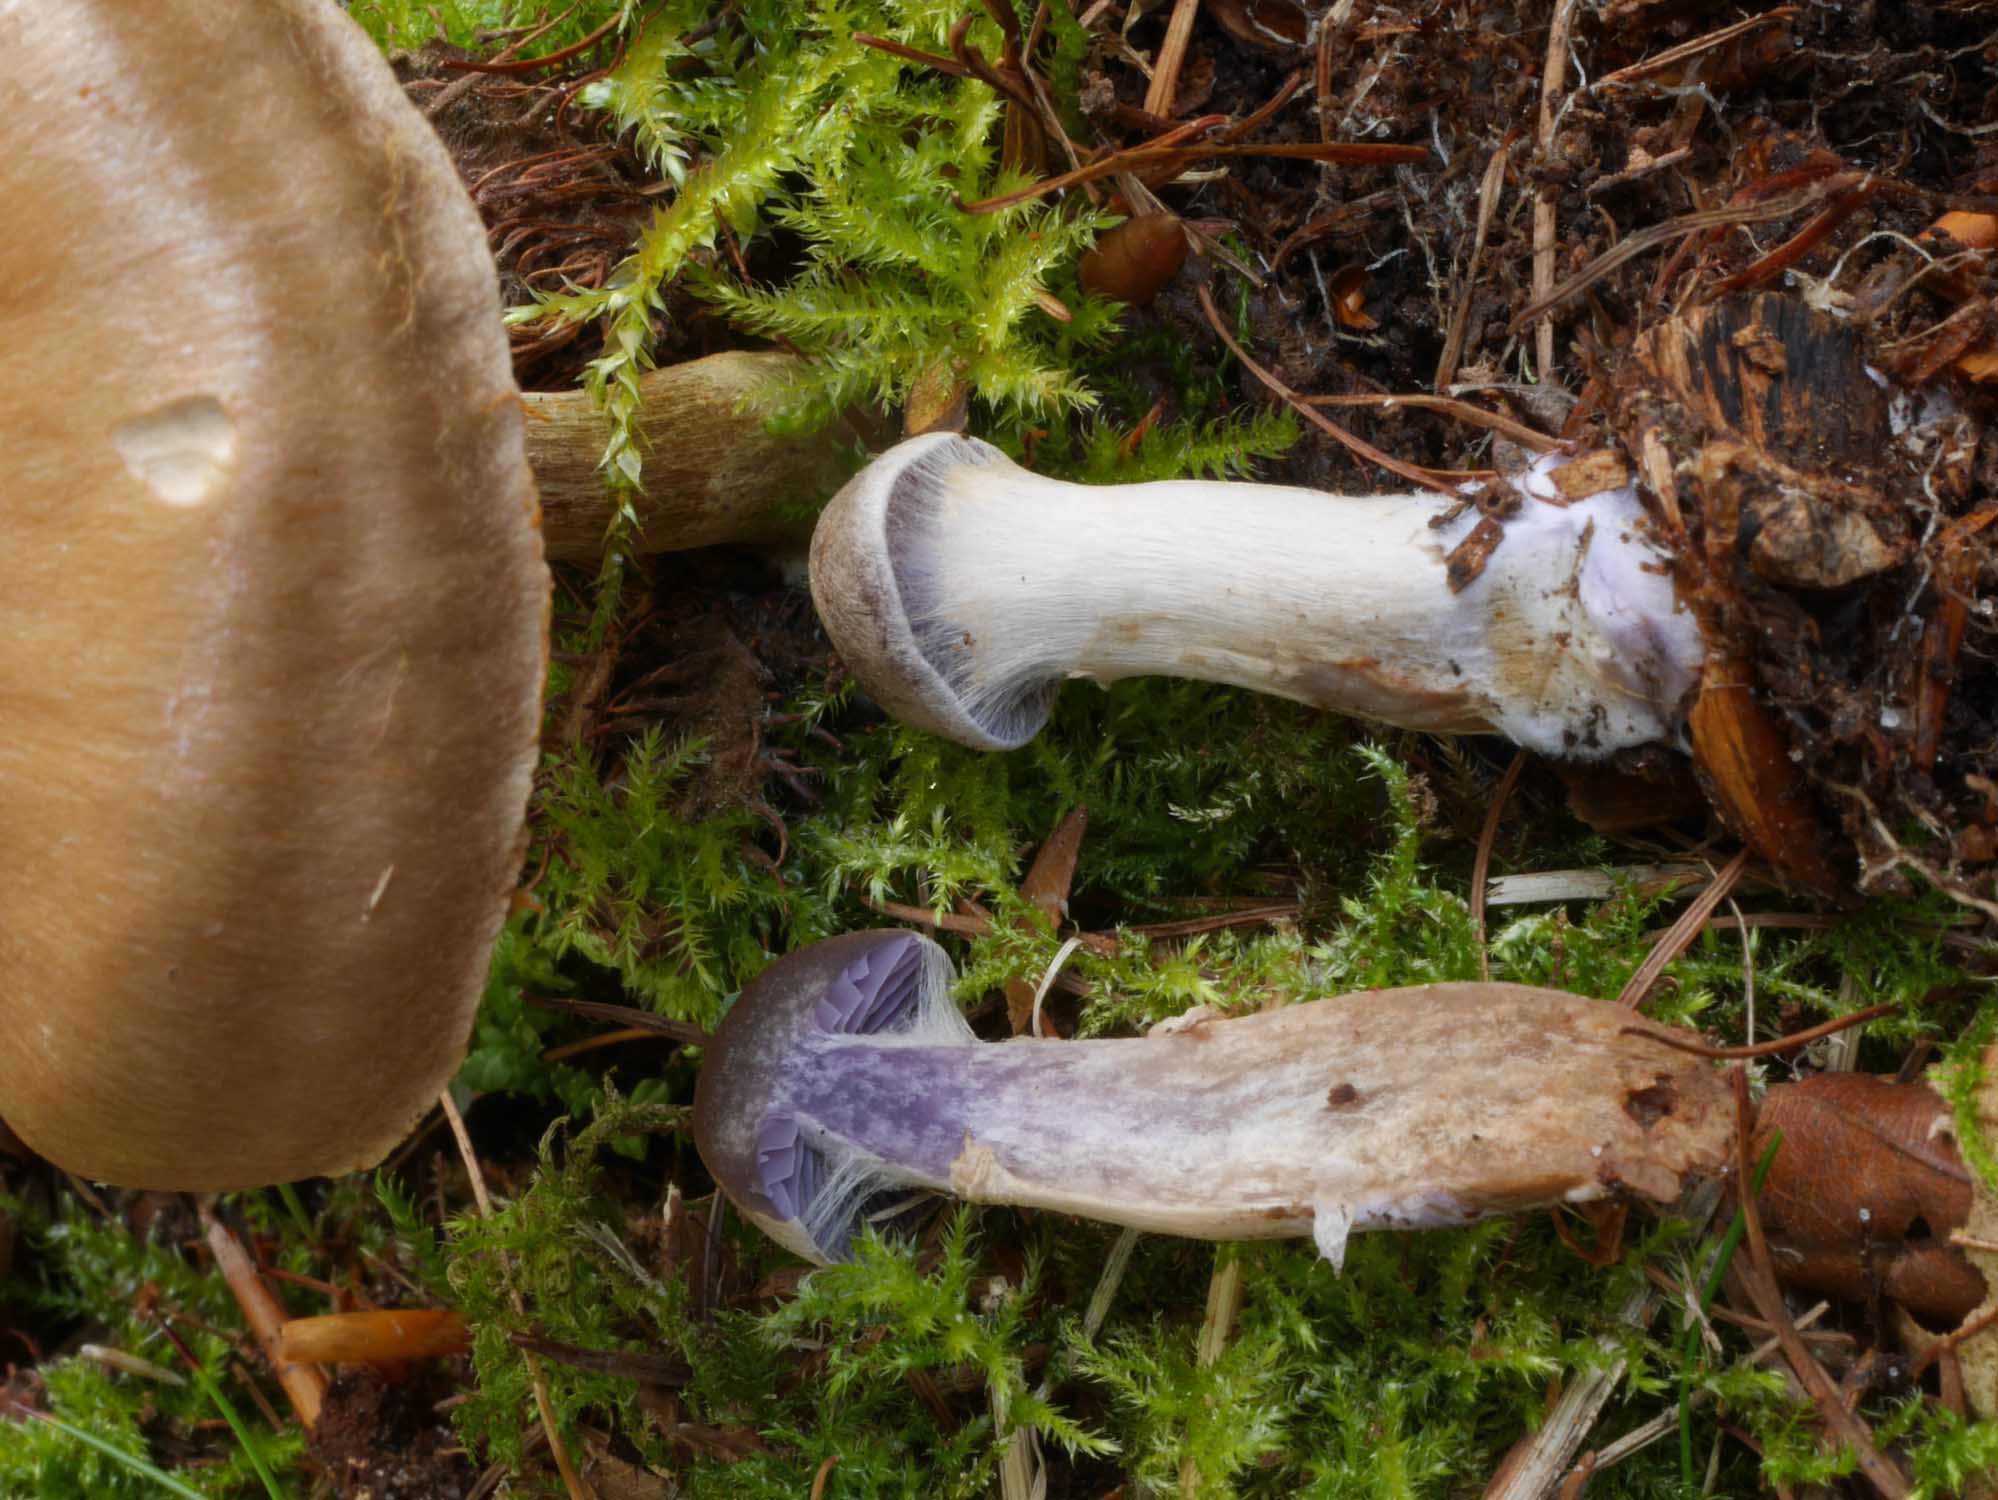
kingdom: Fungi
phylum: Basidiomycota
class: Agaricomycetes
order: Agaricales
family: Cortinariaceae
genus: Cortinarius
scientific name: Cortinarius
